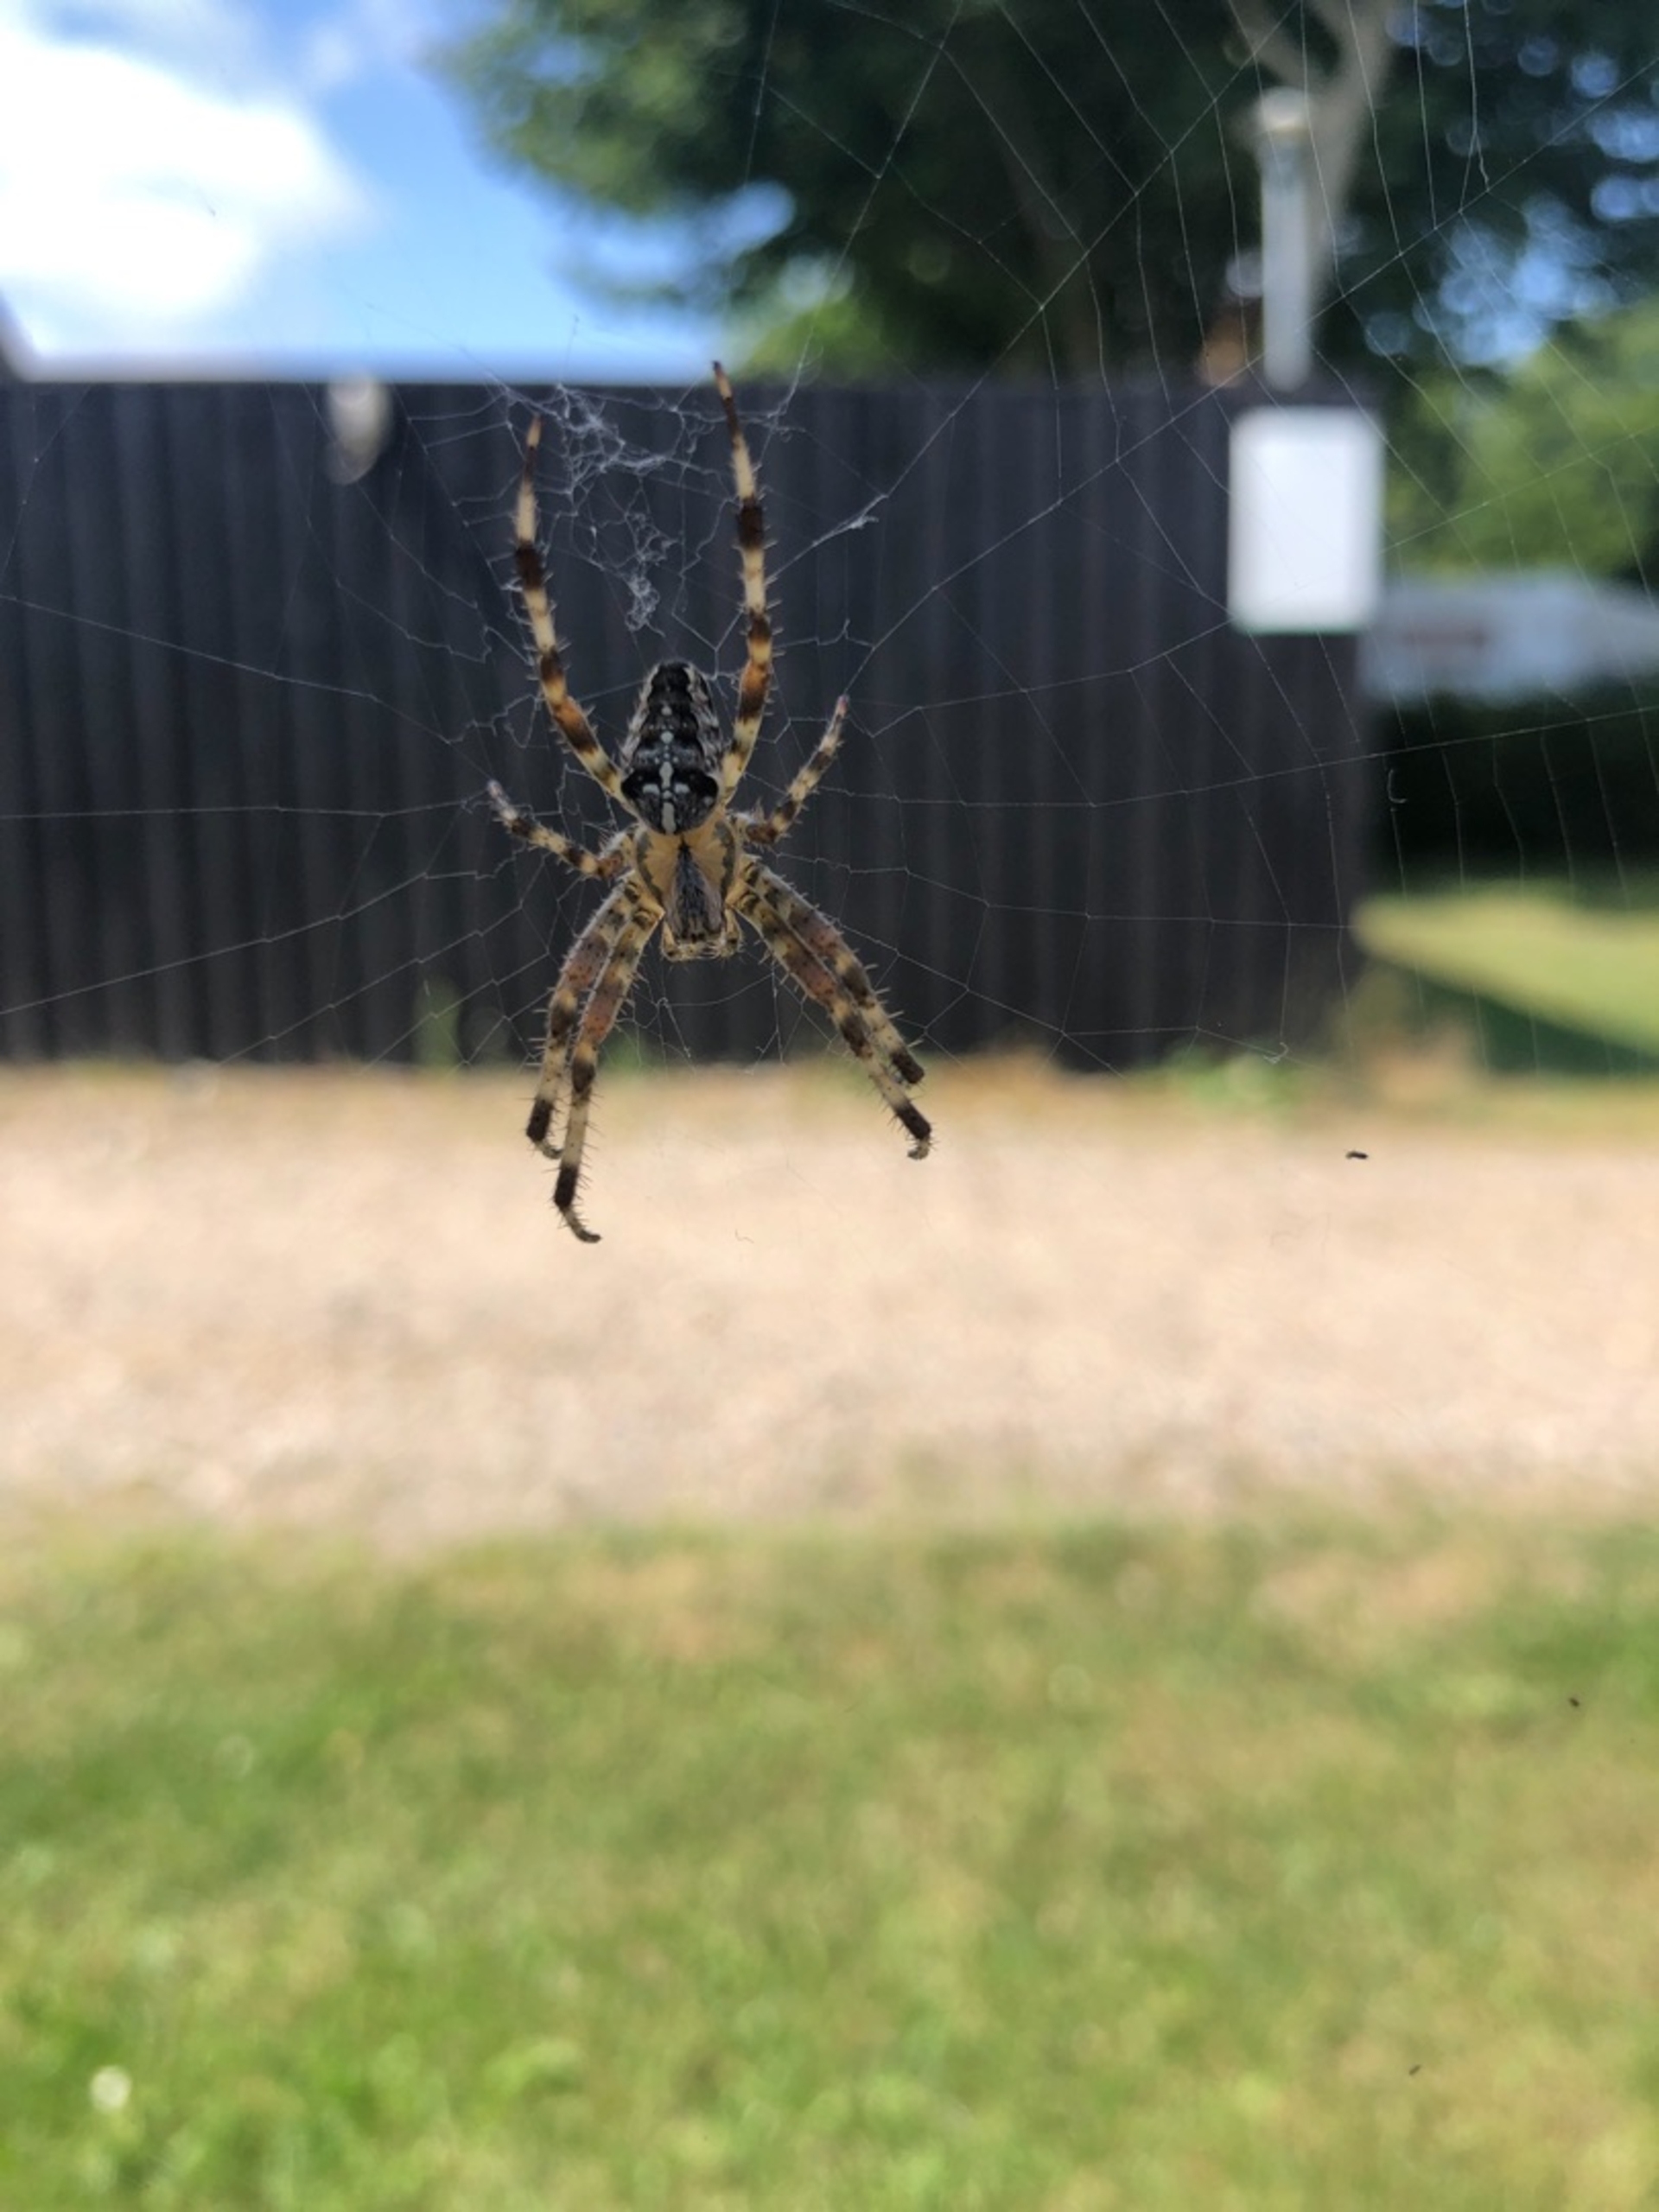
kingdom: Animalia
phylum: Arthropoda
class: Arachnida
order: Araneae
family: Araneidae
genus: Araneus
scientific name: Araneus diadematus
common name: Korsedderkop
